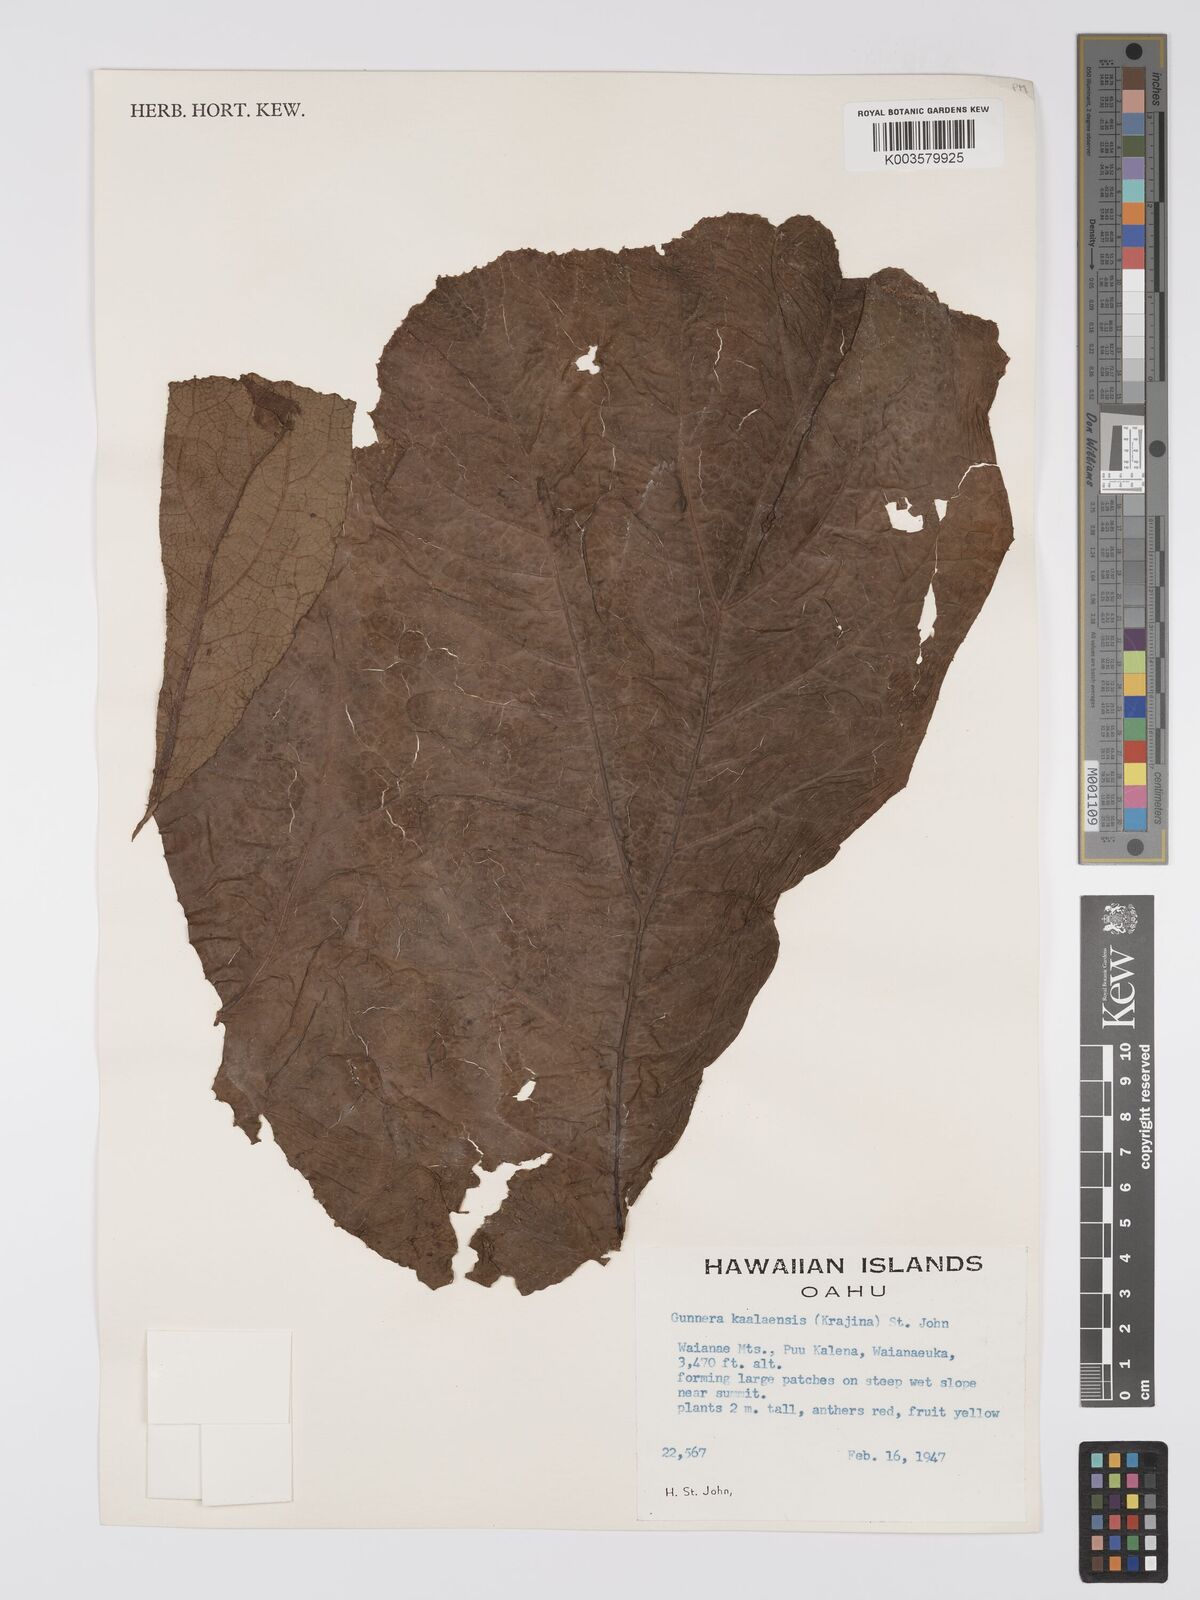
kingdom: Plantae
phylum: Tracheophyta
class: Magnoliopsida
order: Gunnerales
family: Gunneraceae
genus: Gunnera
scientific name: Gunnera petaloidea
